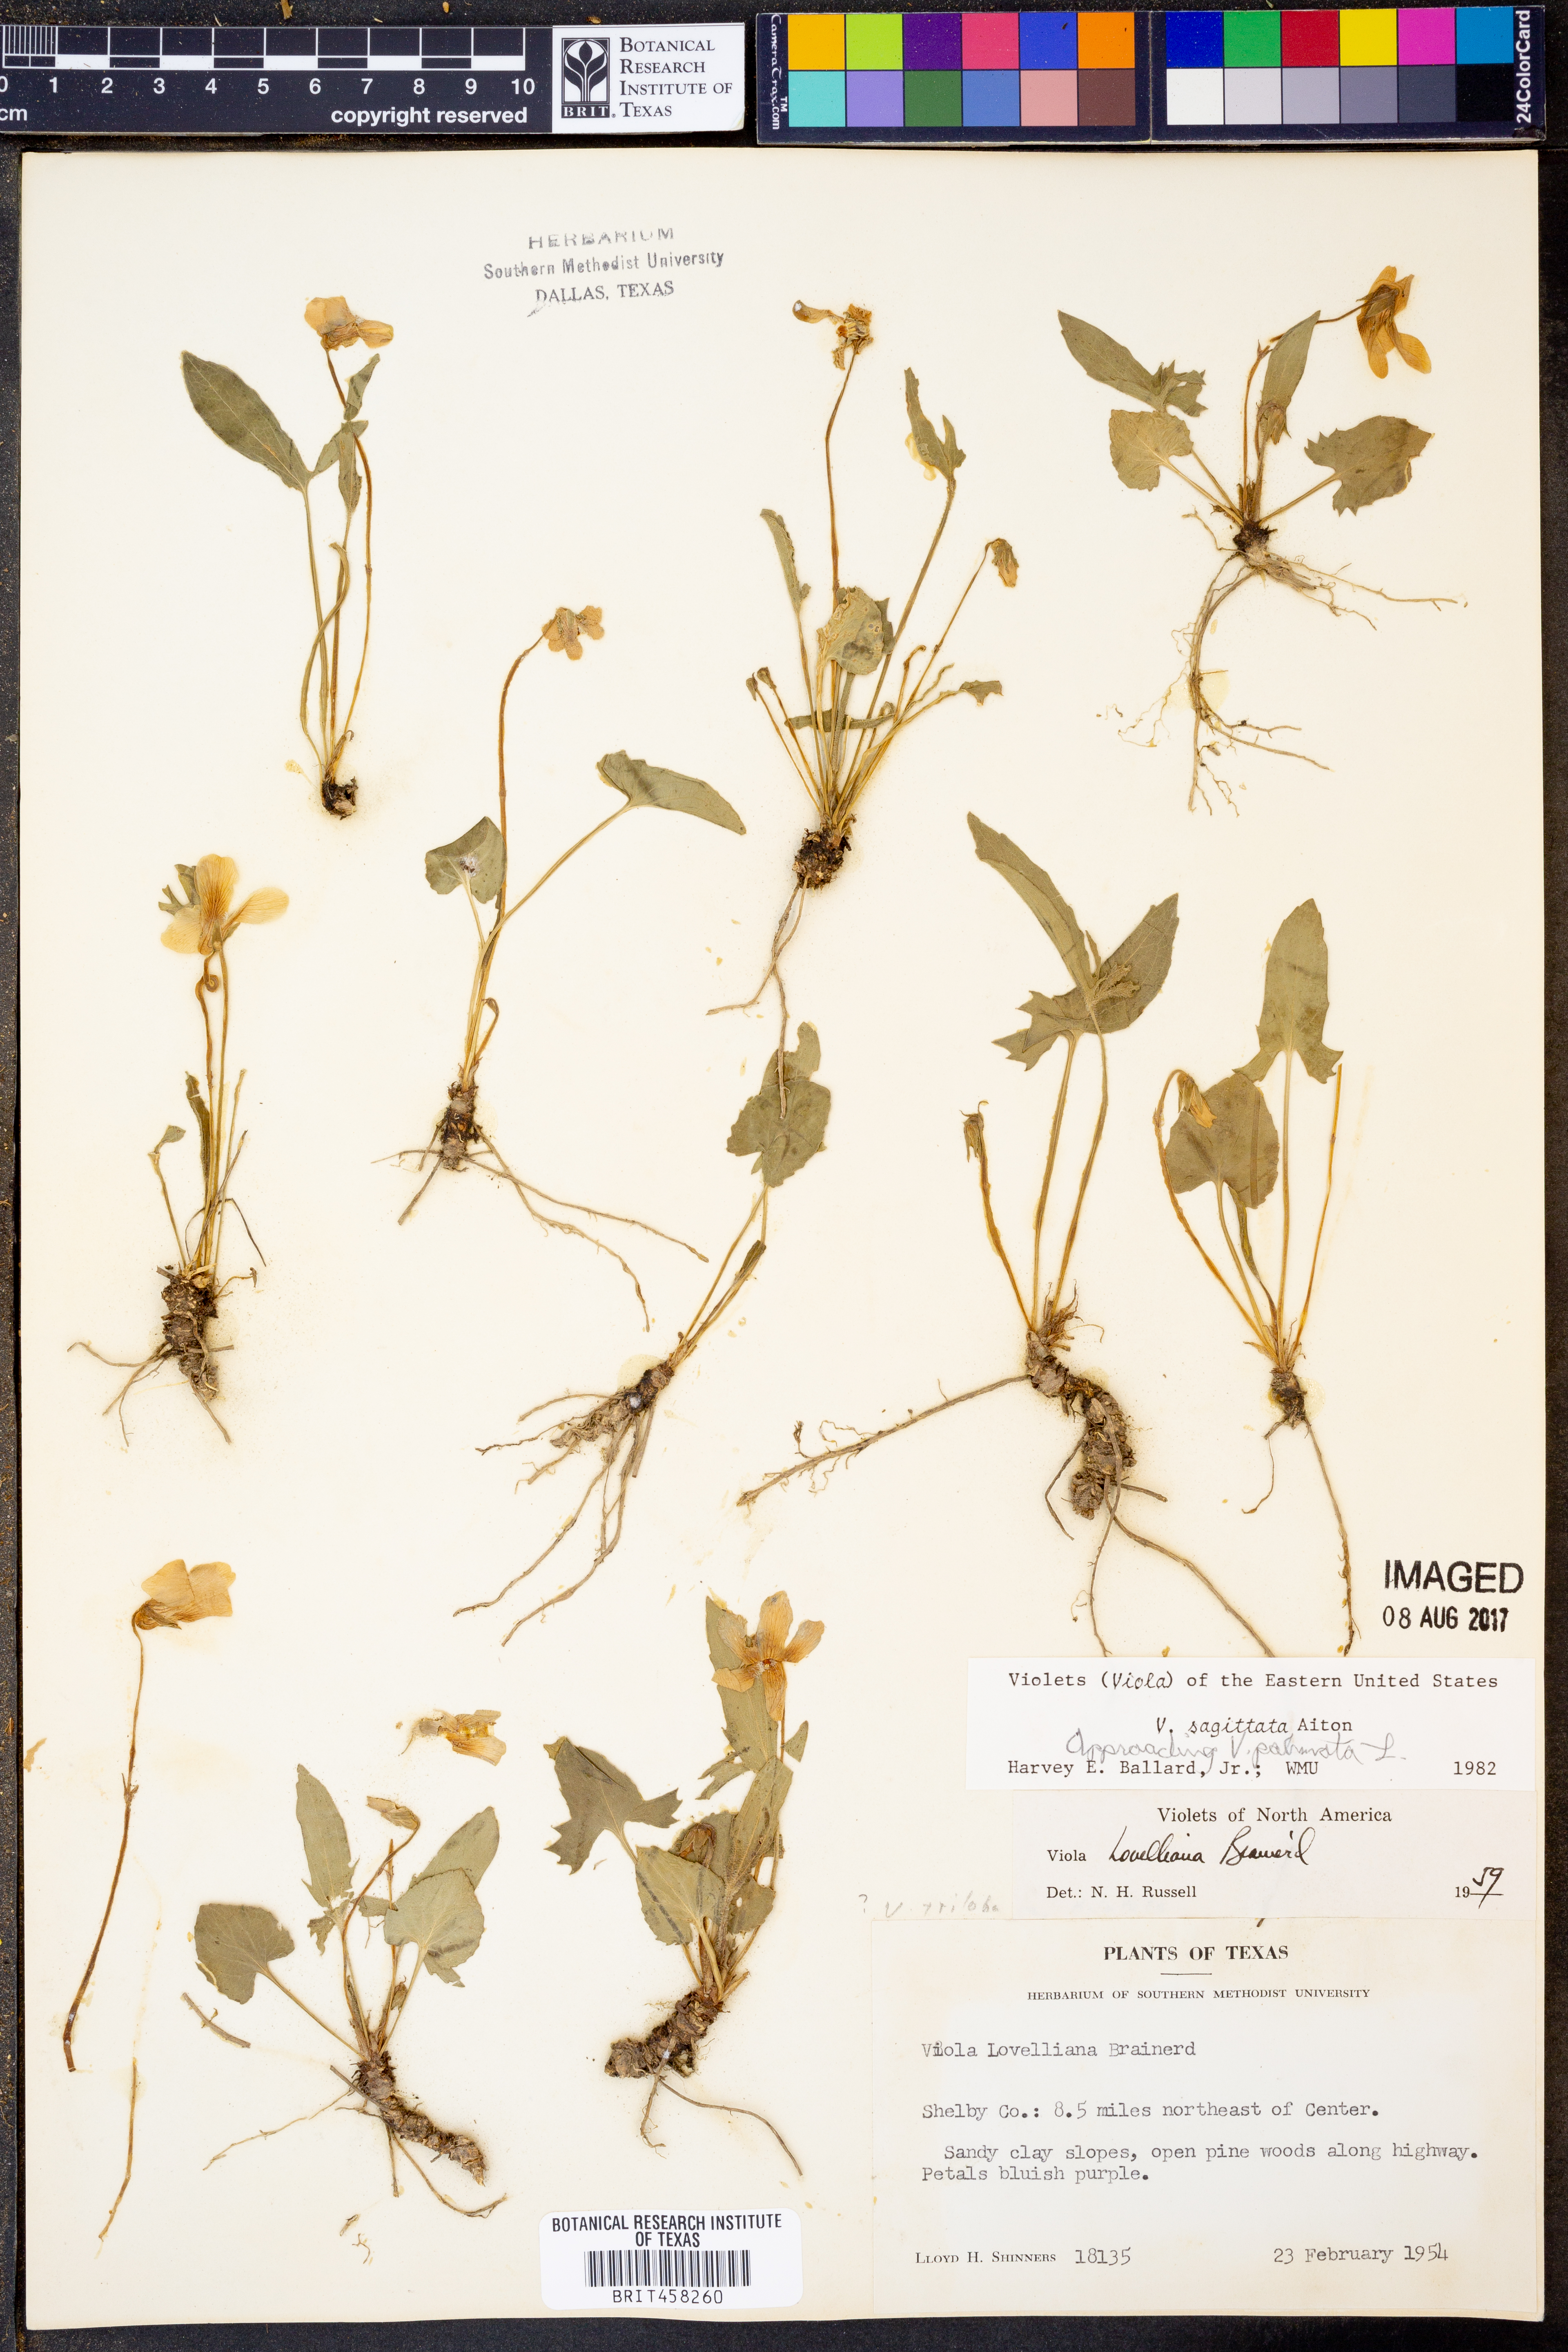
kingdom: Plantae
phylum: Tracheophyta
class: Magnoliopsida
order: Malpighiales
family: Violaceae
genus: Viola
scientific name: Viola sagittata
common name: Arrowhead violet
